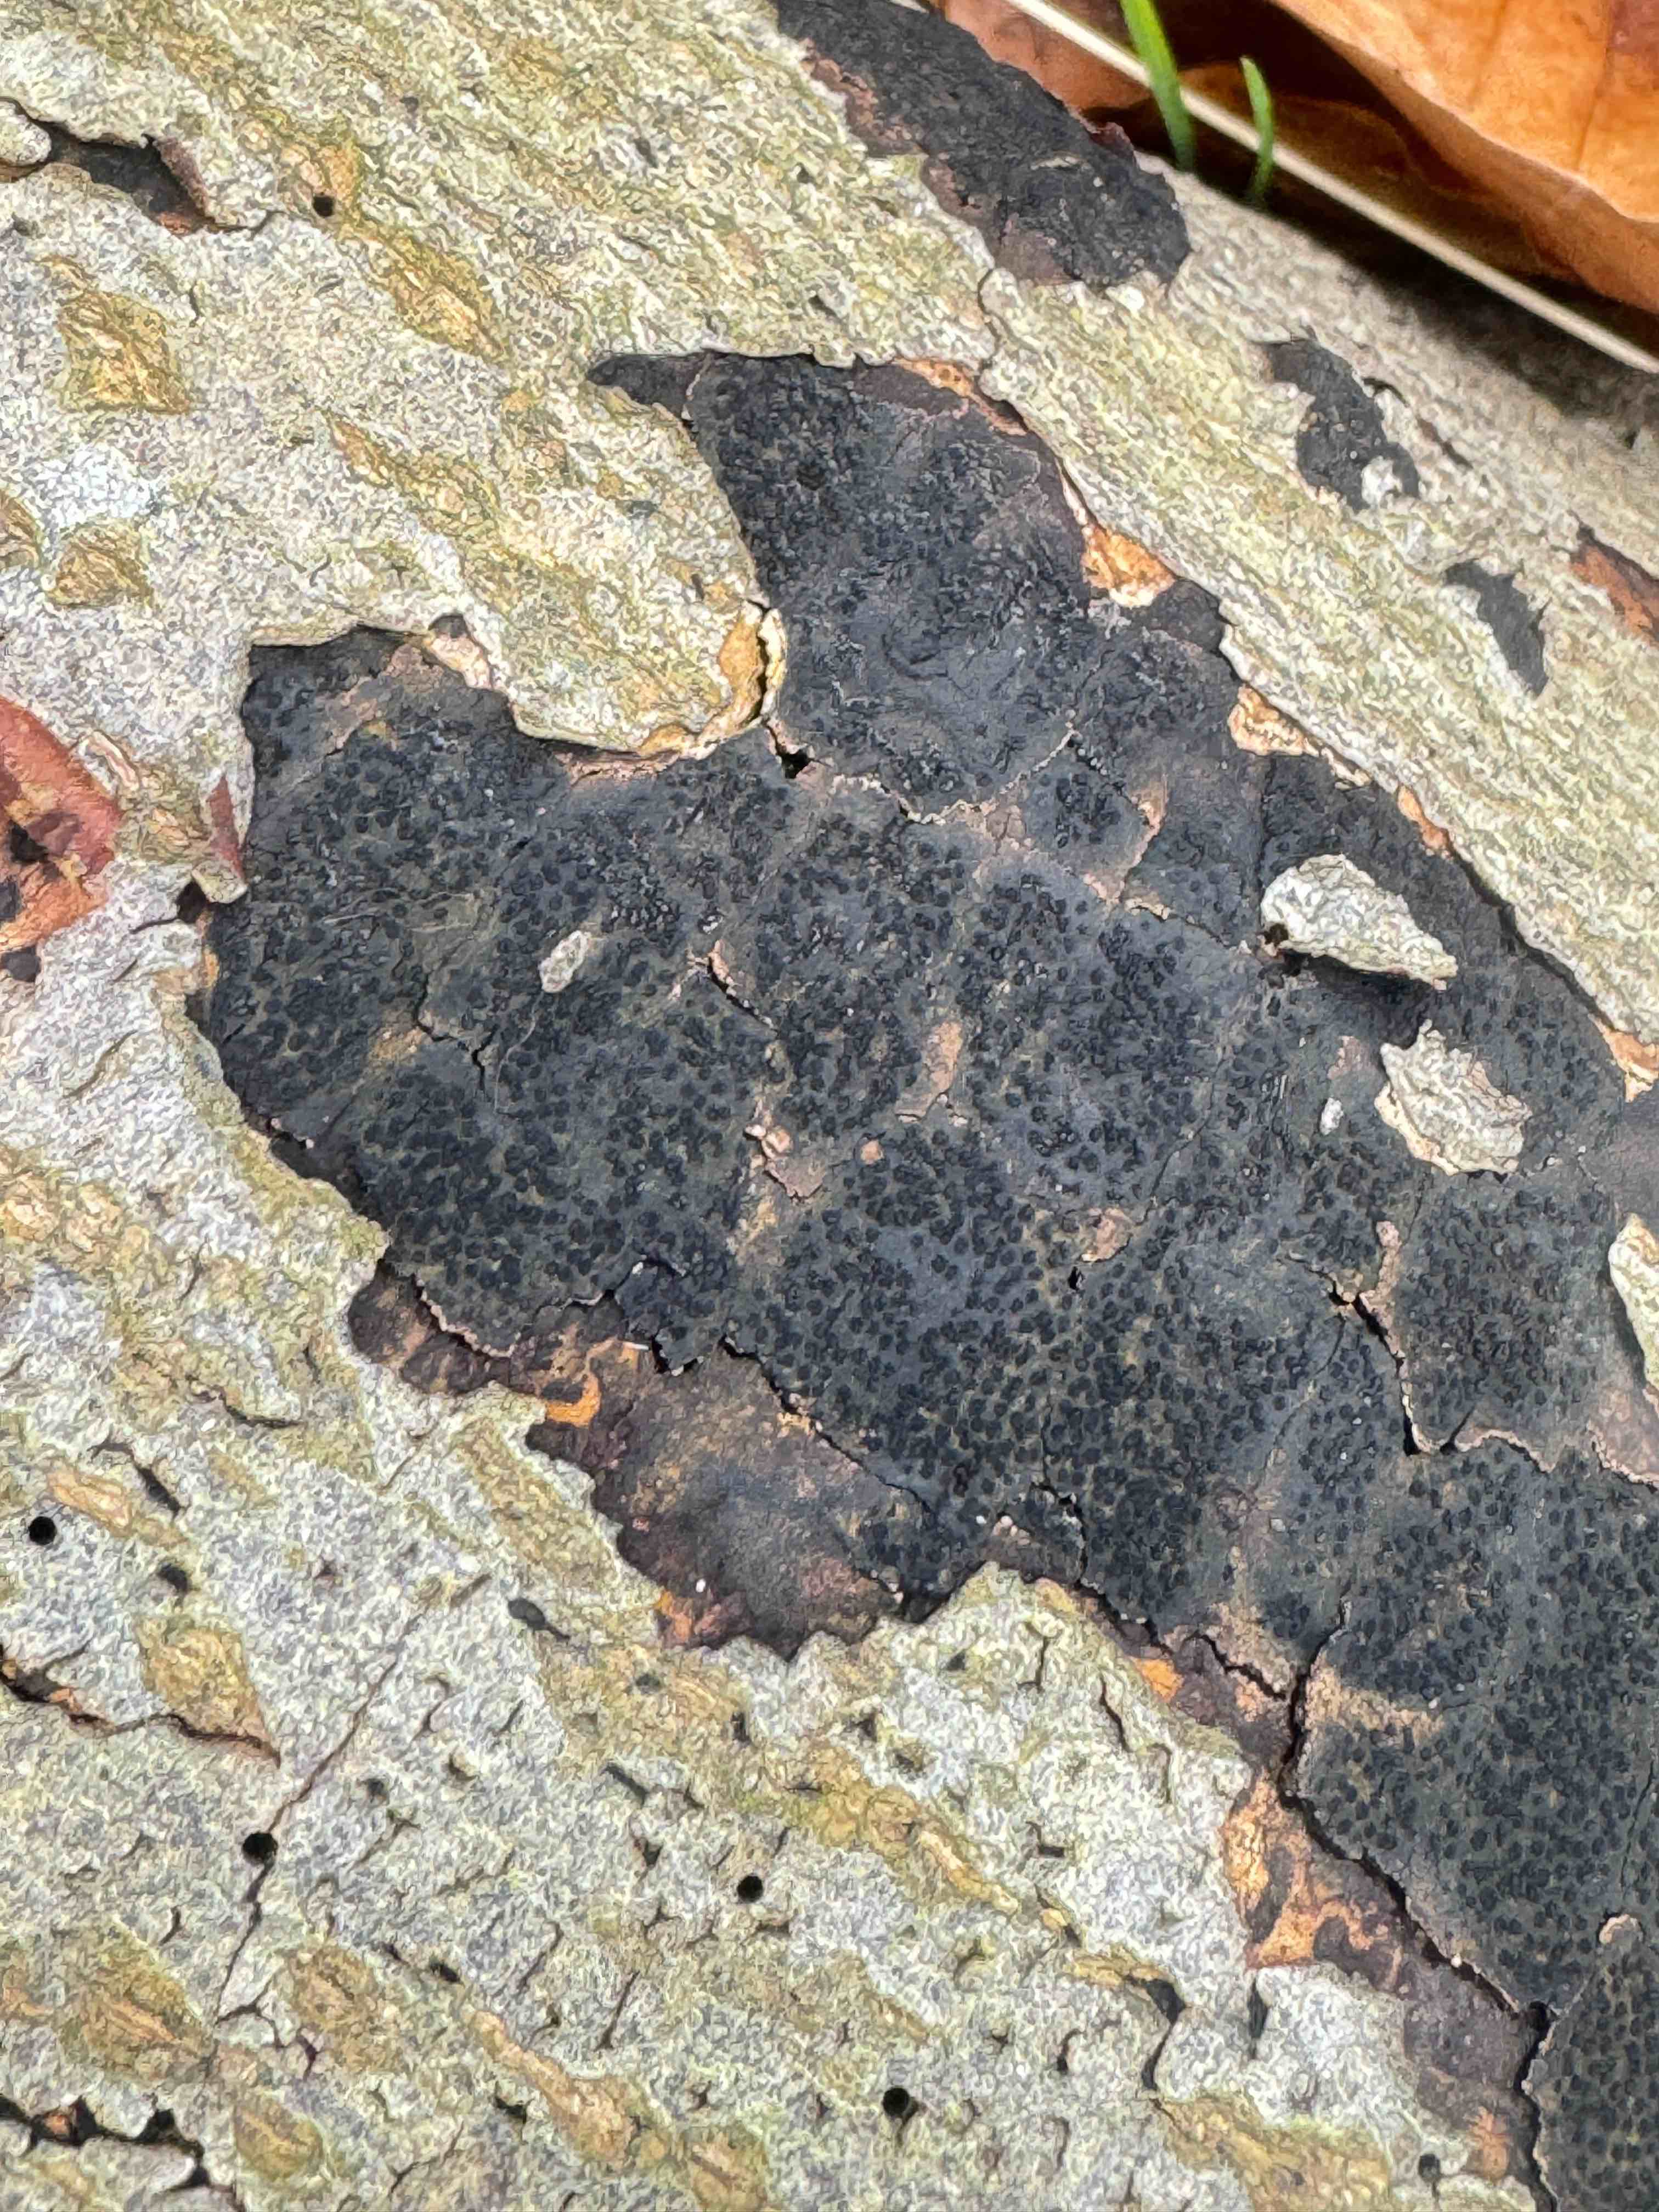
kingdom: Fungi
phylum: Ascomycota
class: Sordariomycetes
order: Xylariales
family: Diatrypaceae
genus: Eutypa
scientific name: Eutypa spinosa
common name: grov kulskorpe
